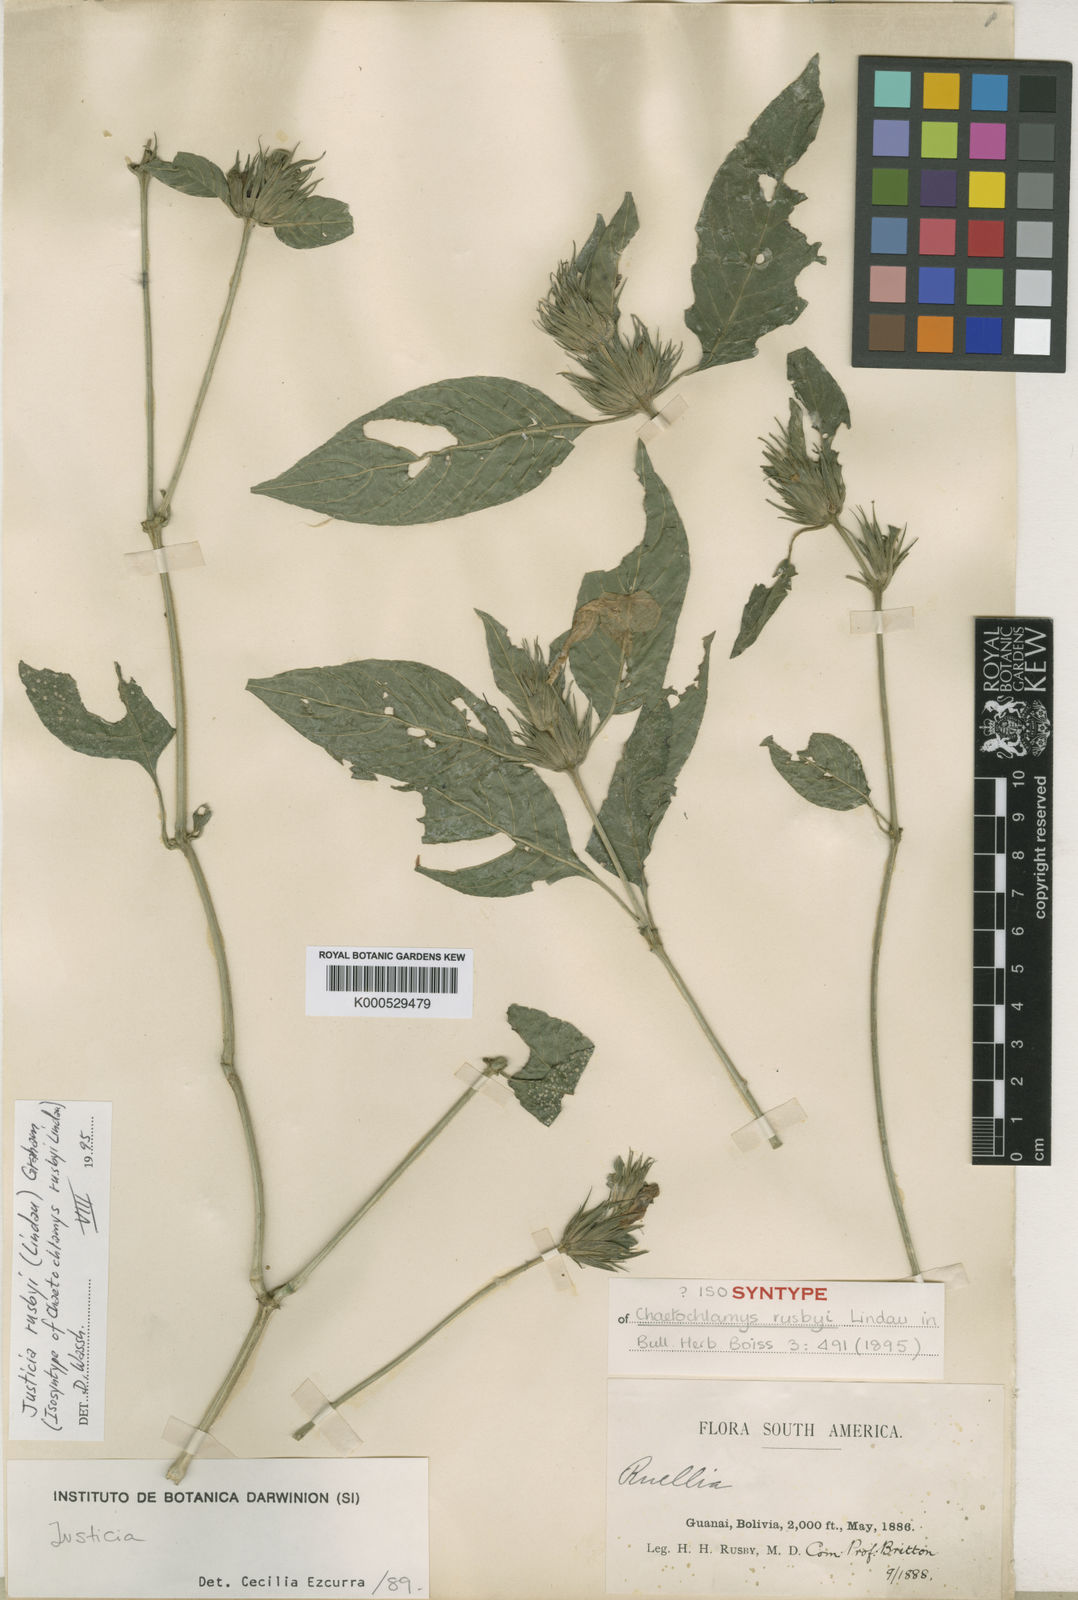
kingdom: Plantae
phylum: Tracheophyta
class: Magnoliopsida
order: Lamiales
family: Acanthaceae
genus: Justicia
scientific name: Justicia rusbyi
